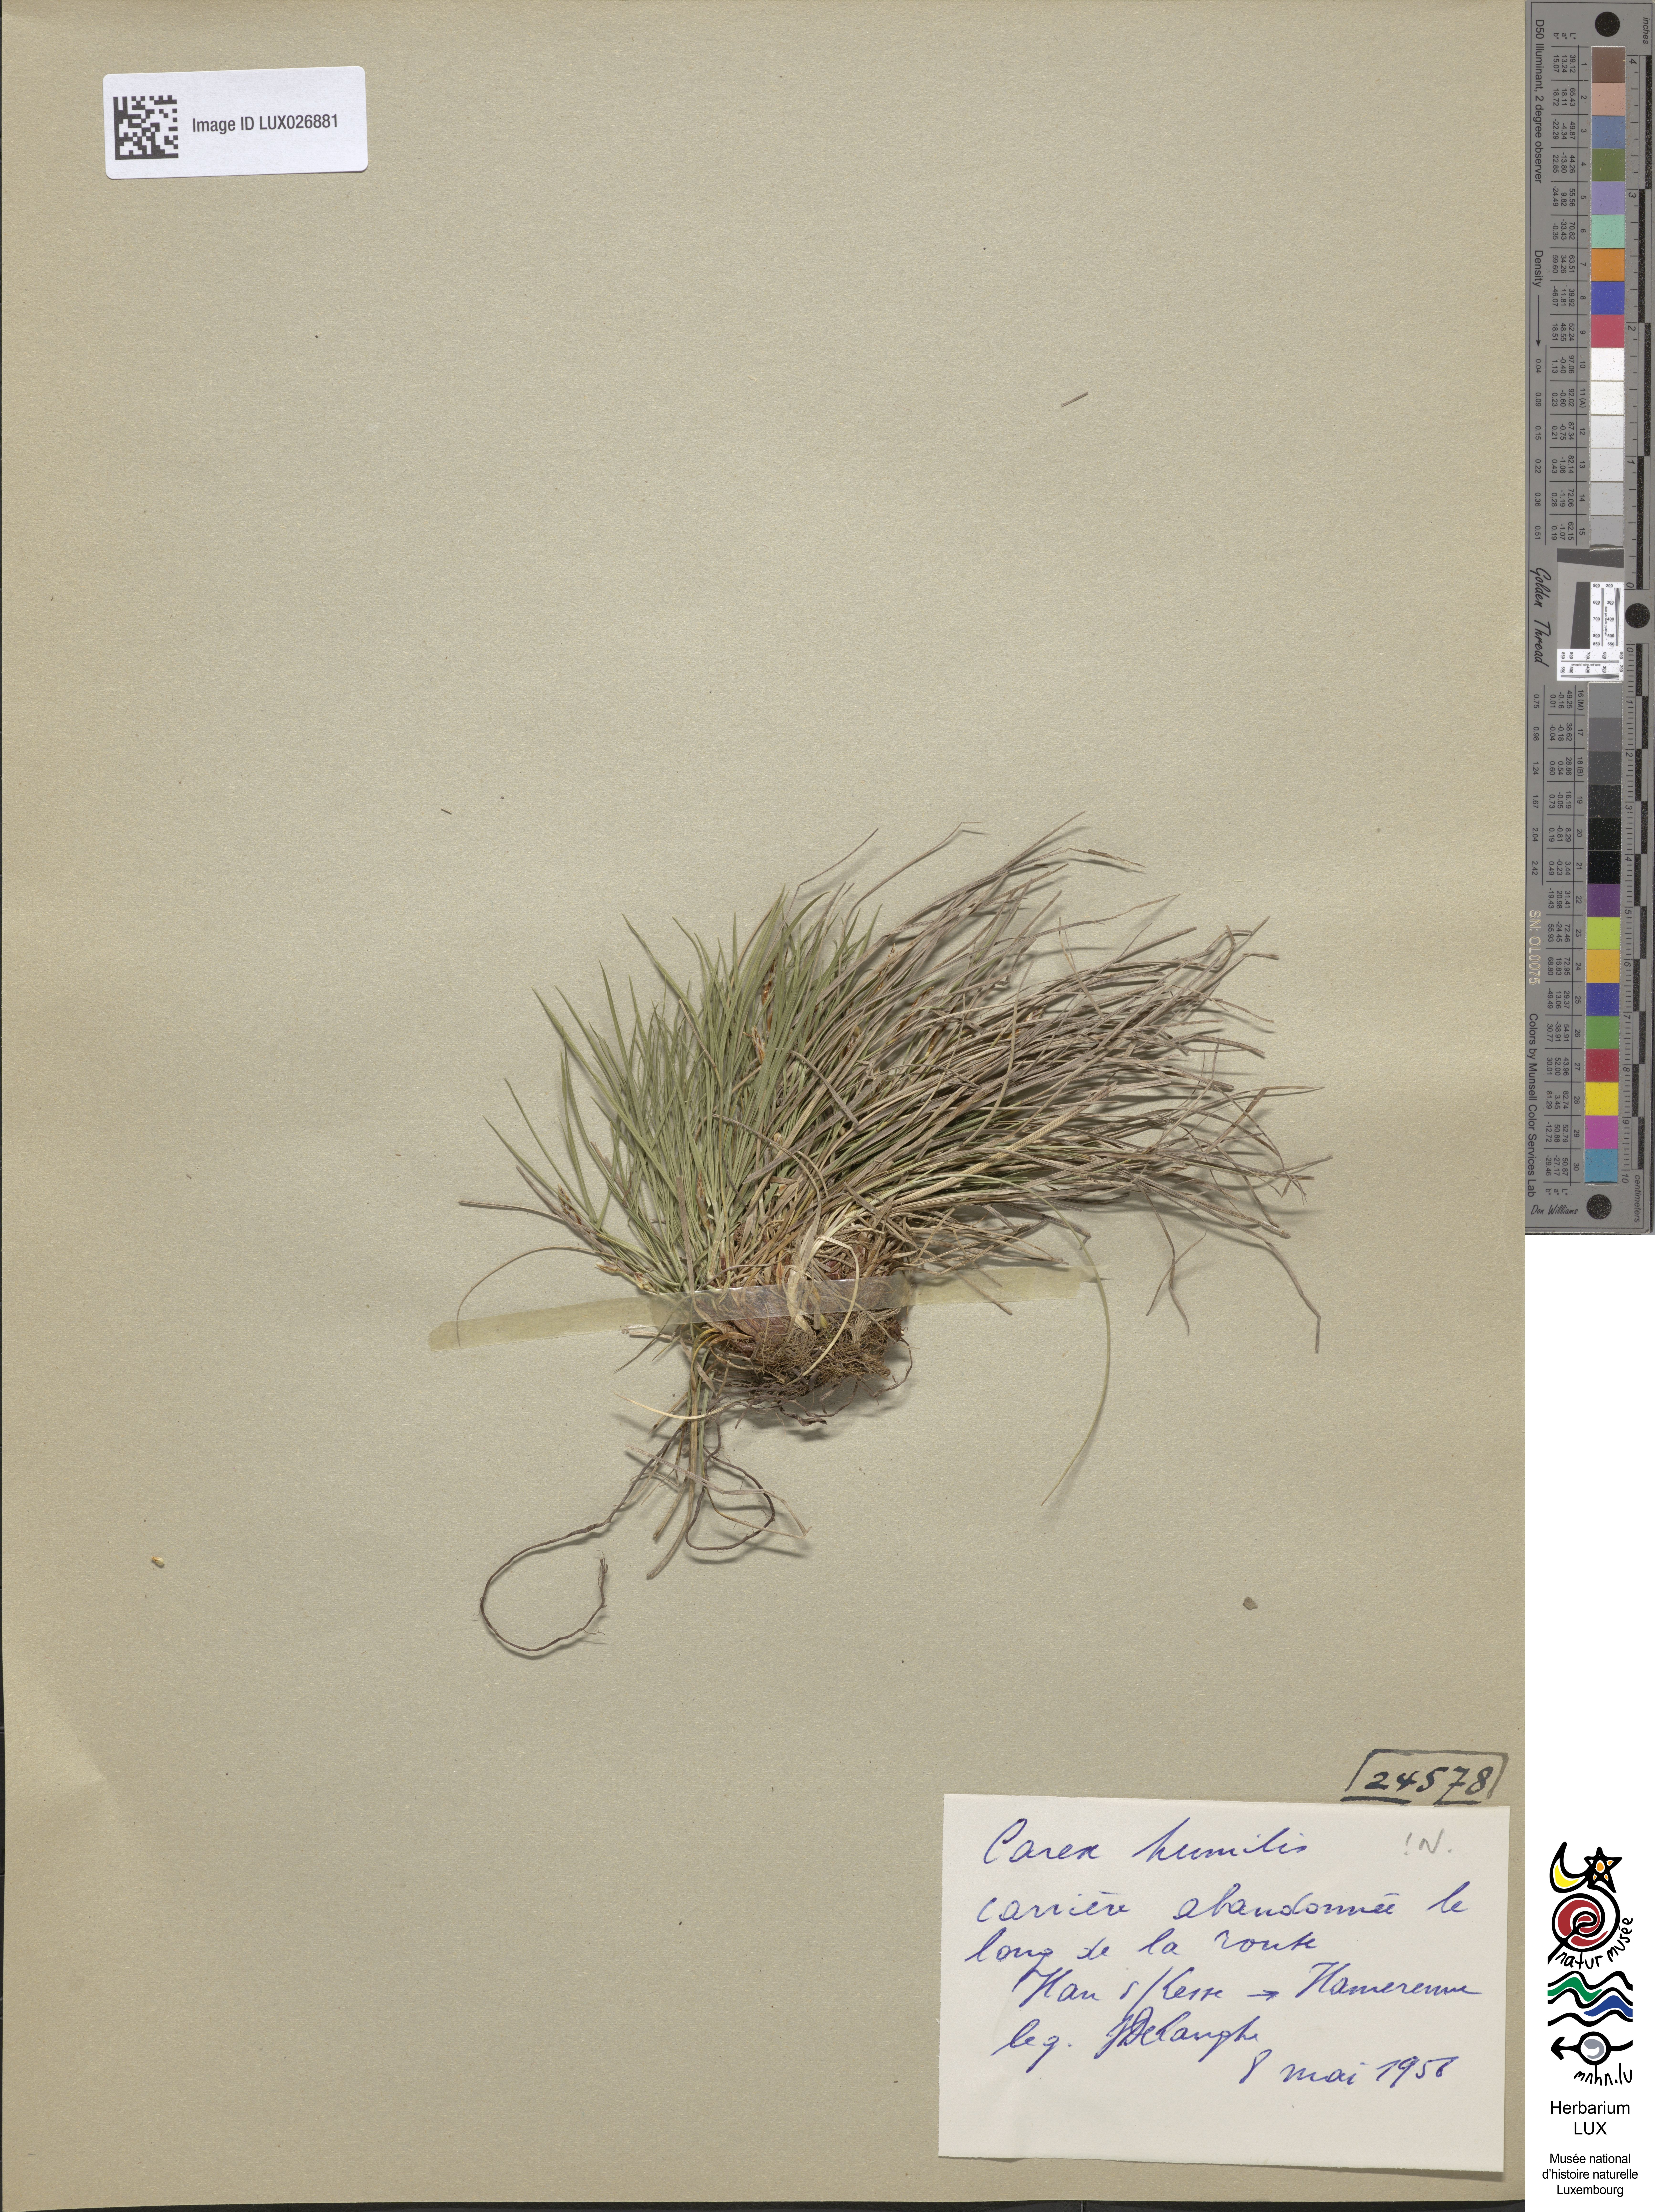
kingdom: Plantae
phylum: Tracheophyta
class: Liliopsida
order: Poales
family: Cyperaceae
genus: Carex
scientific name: Carex humilis
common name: Dwarf sedge
